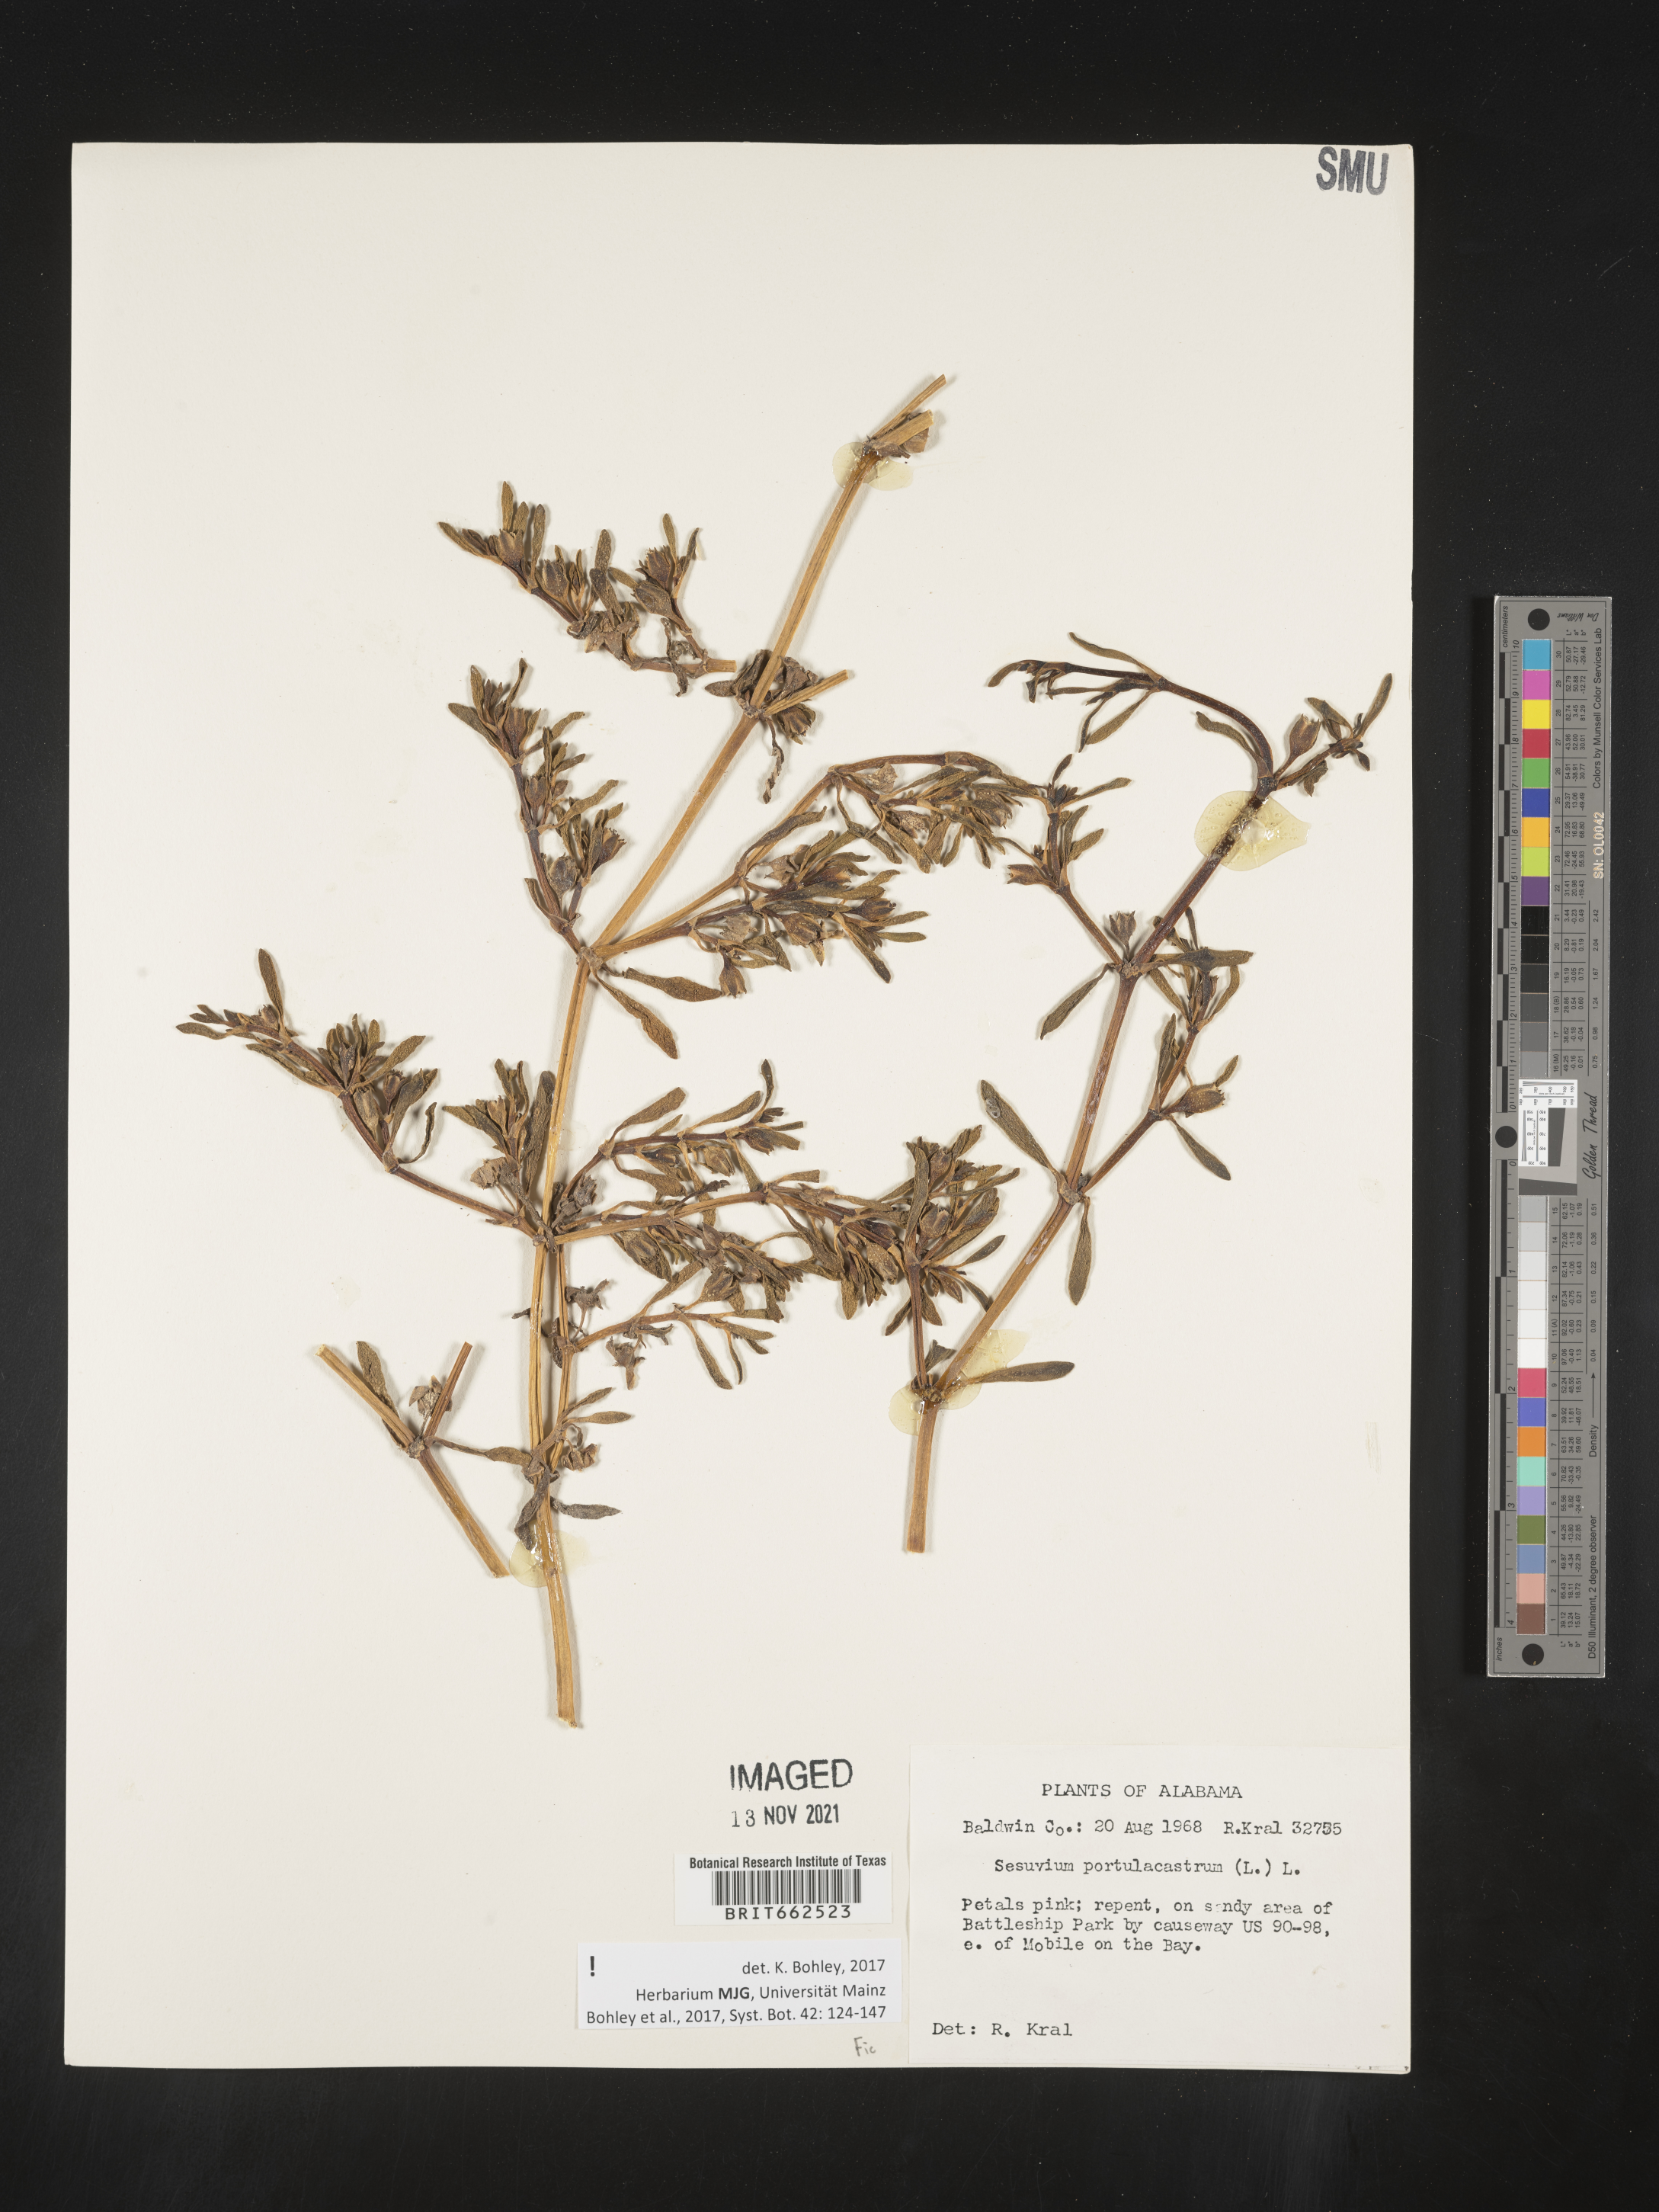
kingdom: Plantae
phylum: Tracheophyta
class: Magnoliopsida
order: Caryophyllales
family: Aizoaceae
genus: Sesuvium
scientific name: Sesuvium portulacastrum
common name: Sea-purslane
